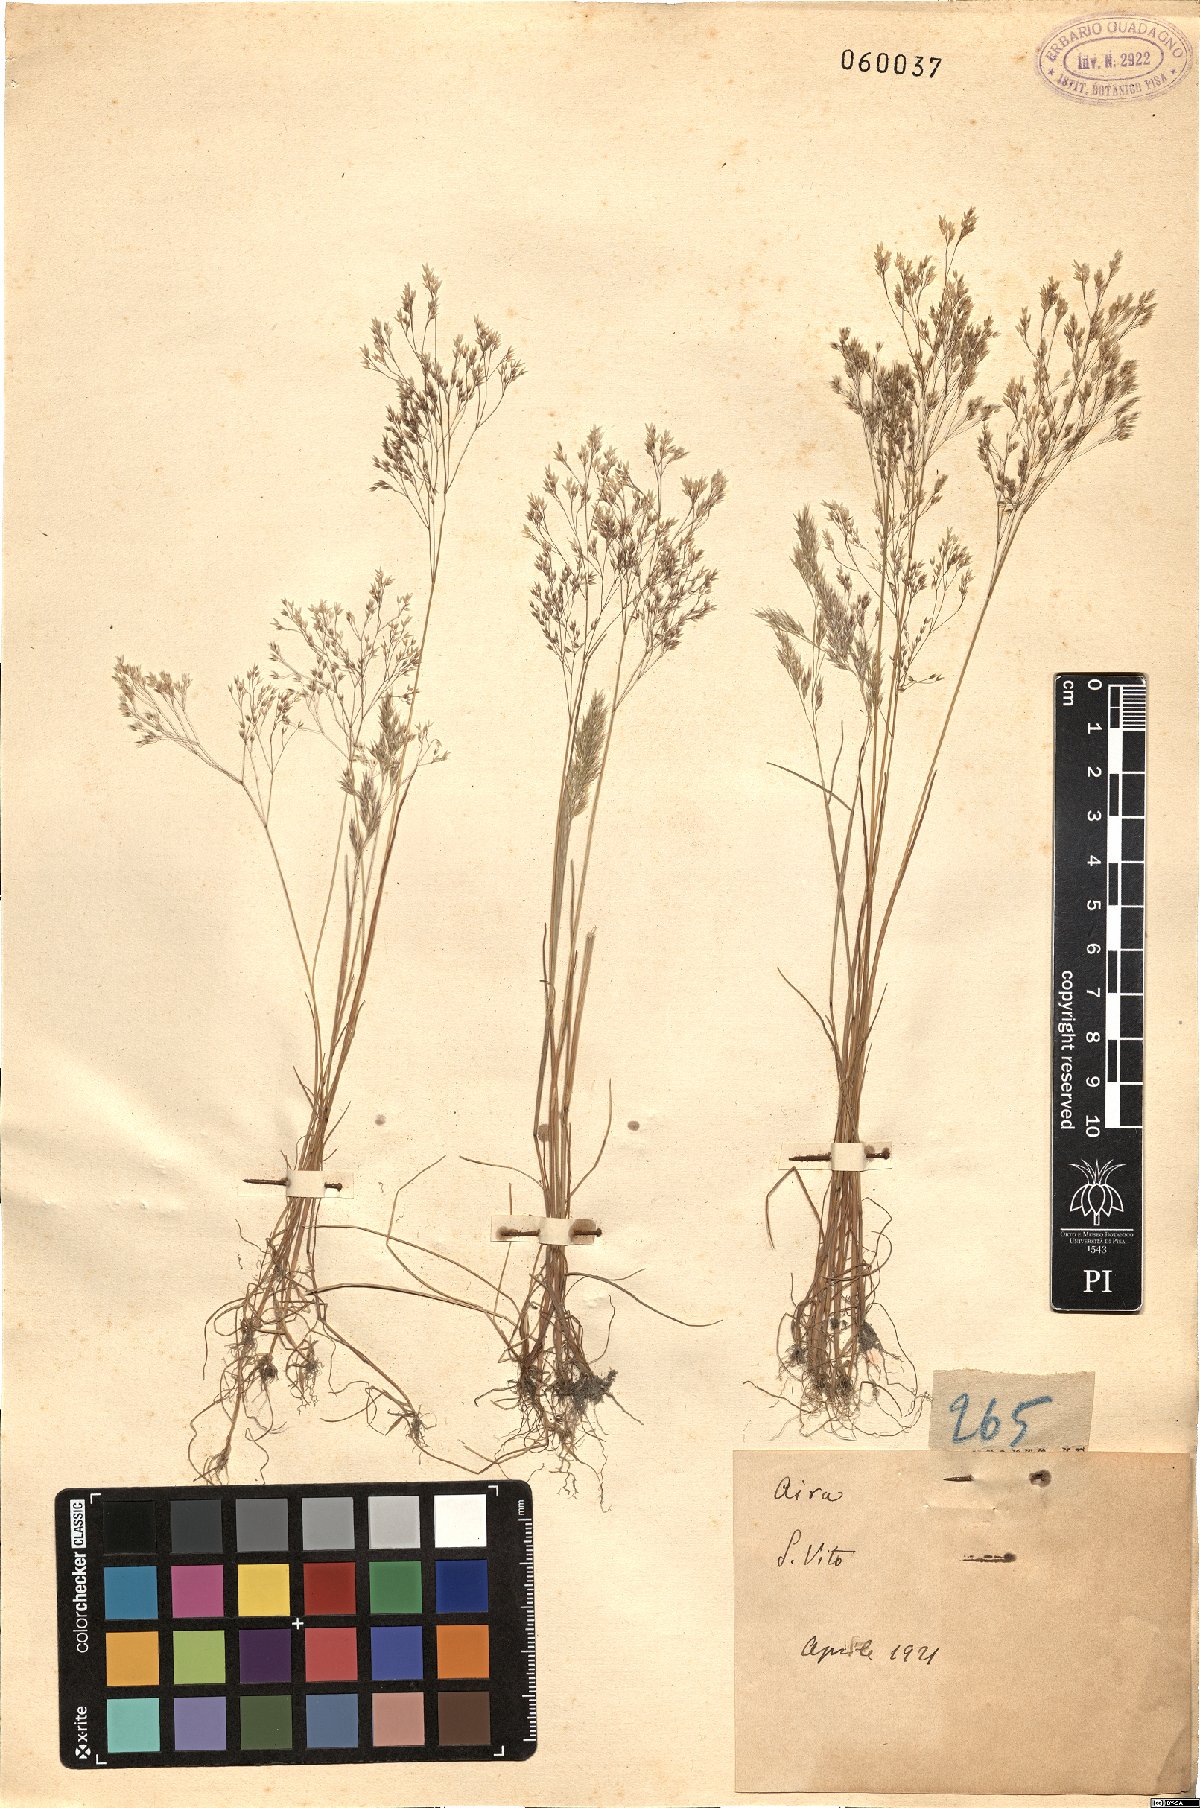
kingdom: Plantae
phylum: Tracheophyta
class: Liliopsida
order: Poales
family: Poaceae
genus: Aira
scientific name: Aira
